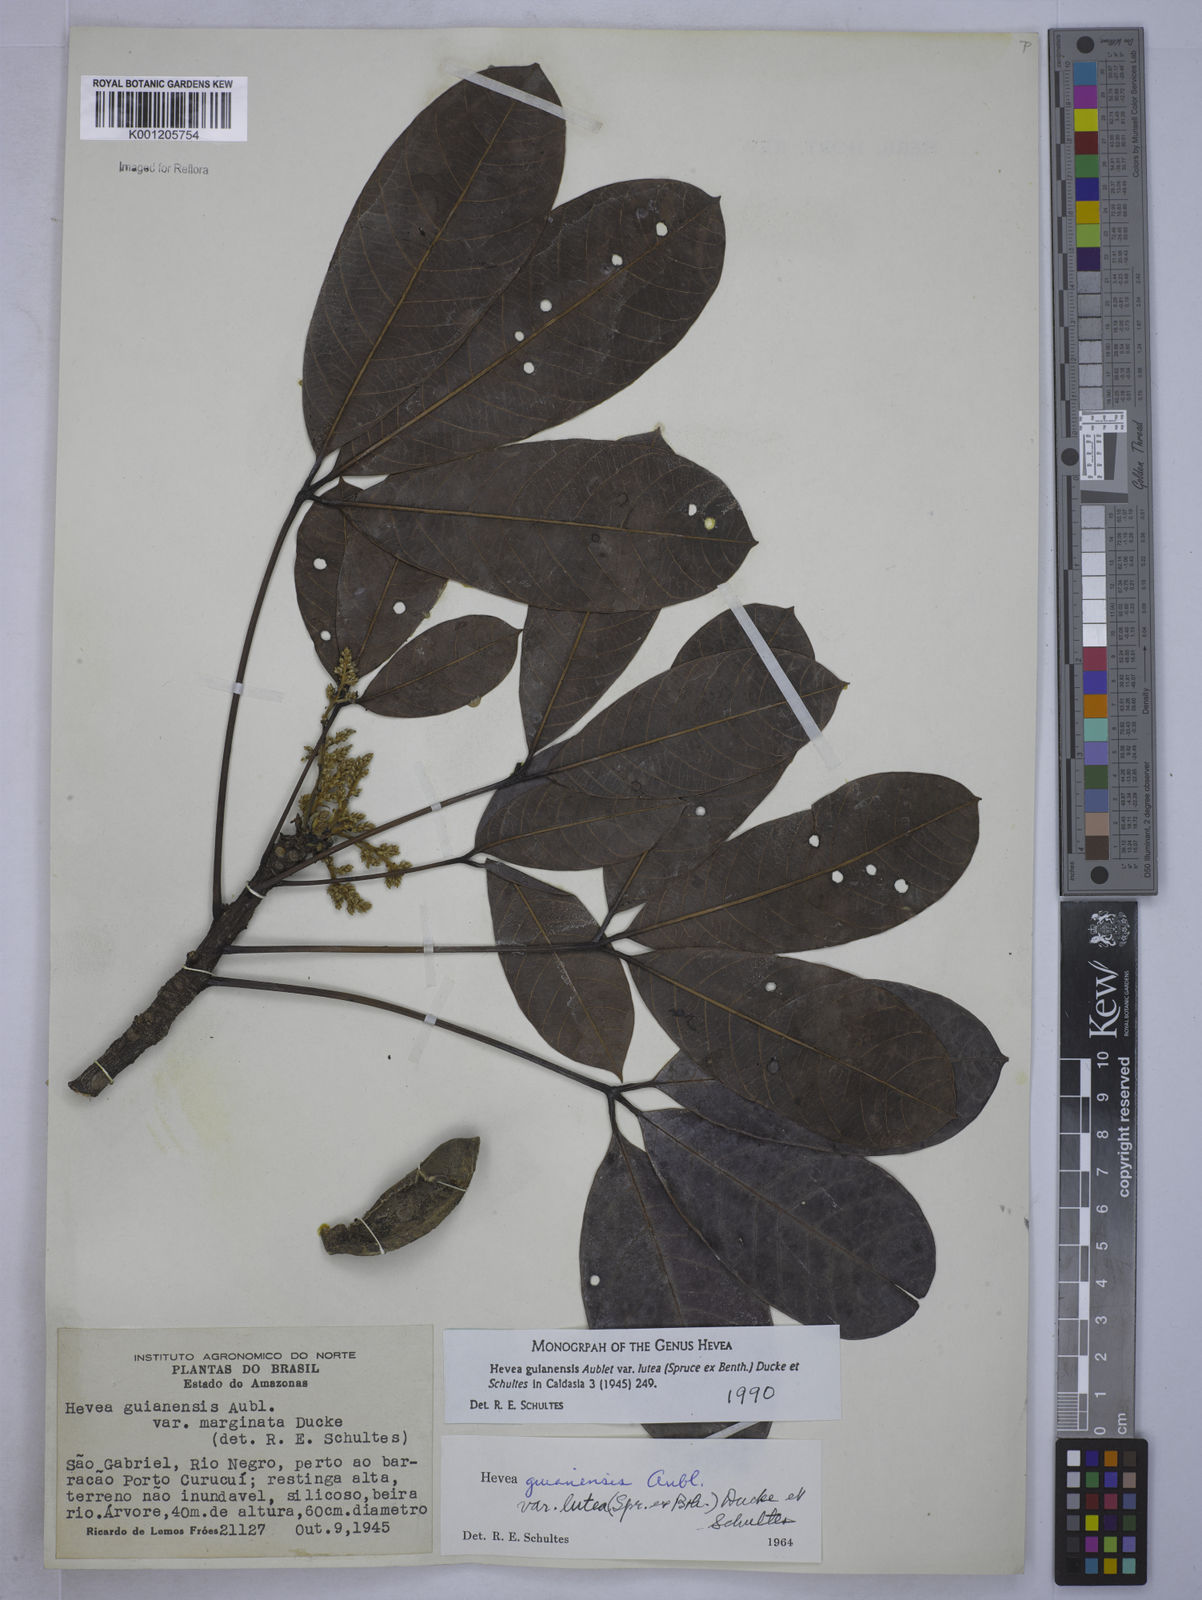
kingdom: Plantae
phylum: Tracheophyta
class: Magnoliopsida
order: Malpighiales
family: Euphorbiaceae
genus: Hevea
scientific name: Hevea guianensis
